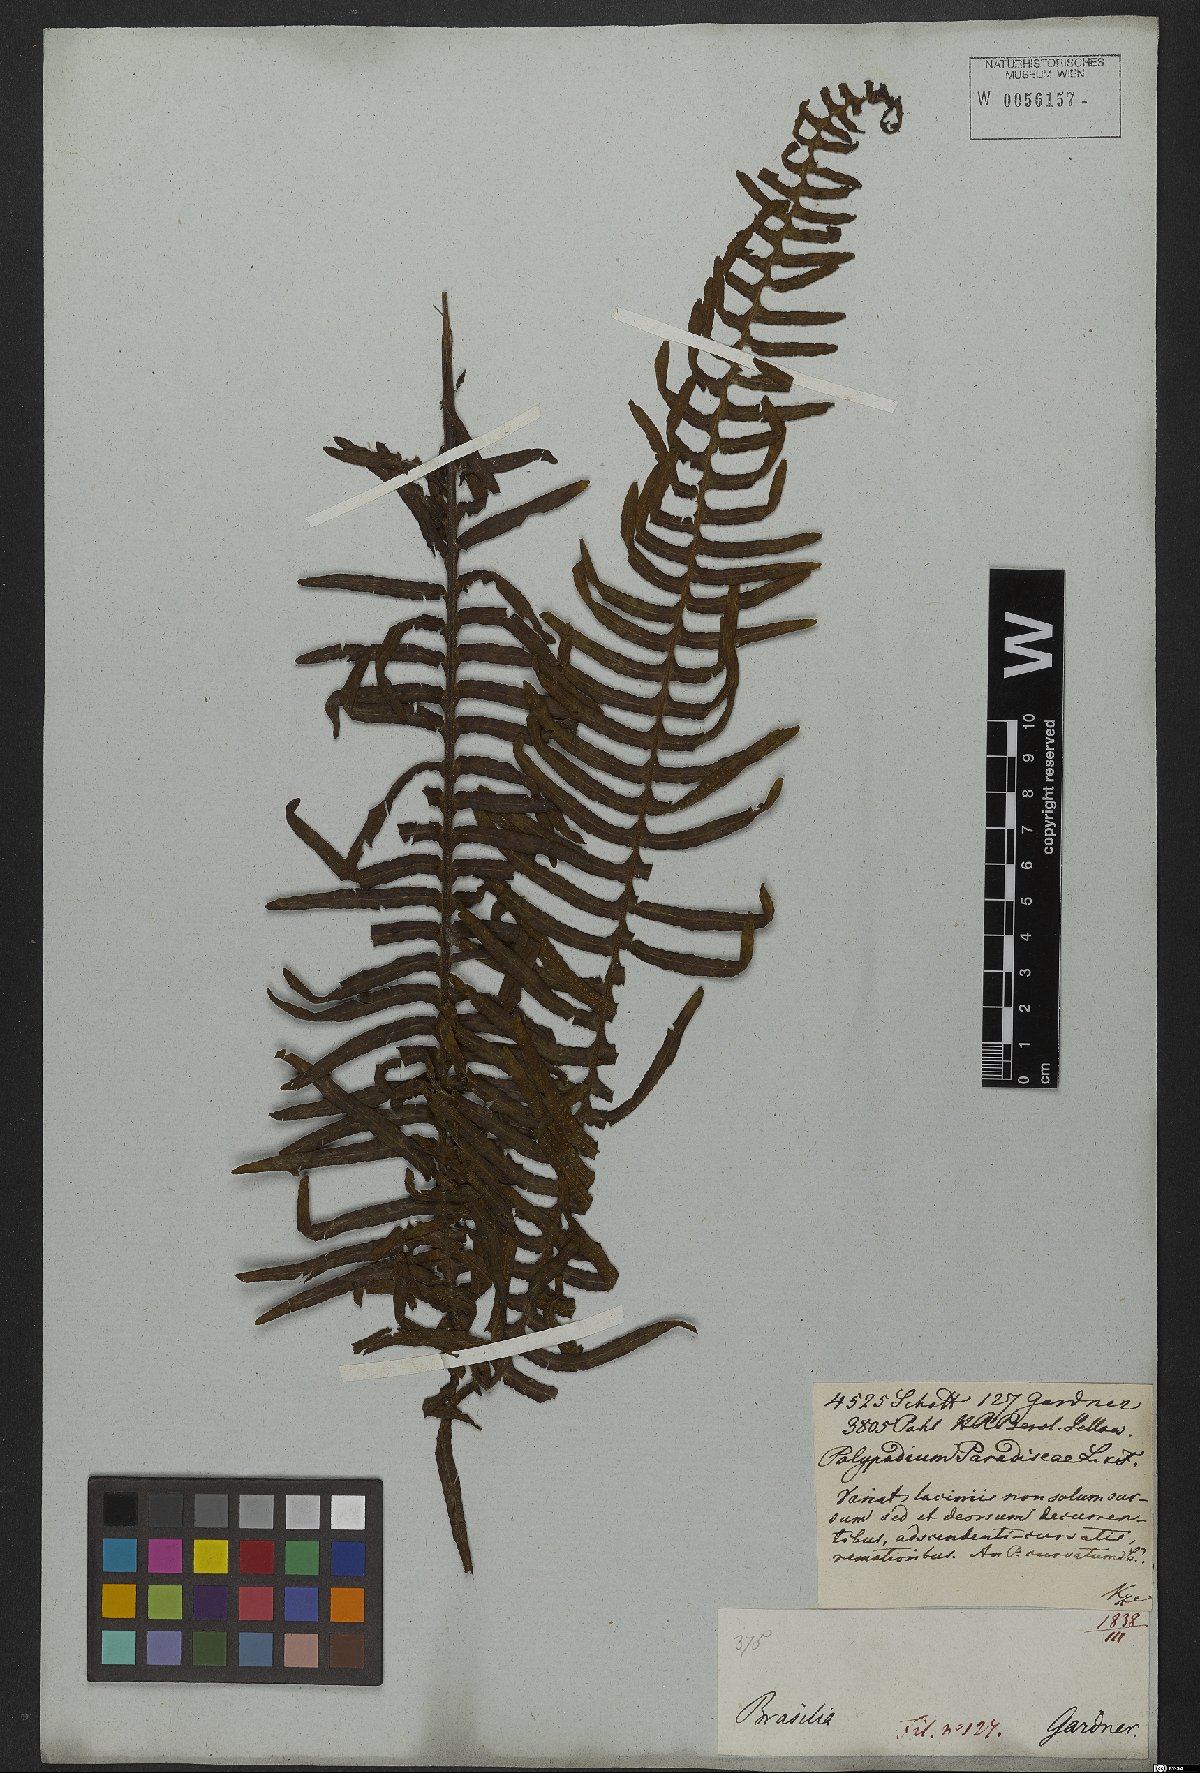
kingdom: Plantae
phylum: Tracheophyta
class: Polypodiopsida
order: Polypodiales
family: Polypodiaceae
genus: Pecluma
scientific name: Pecluma paradiseae
